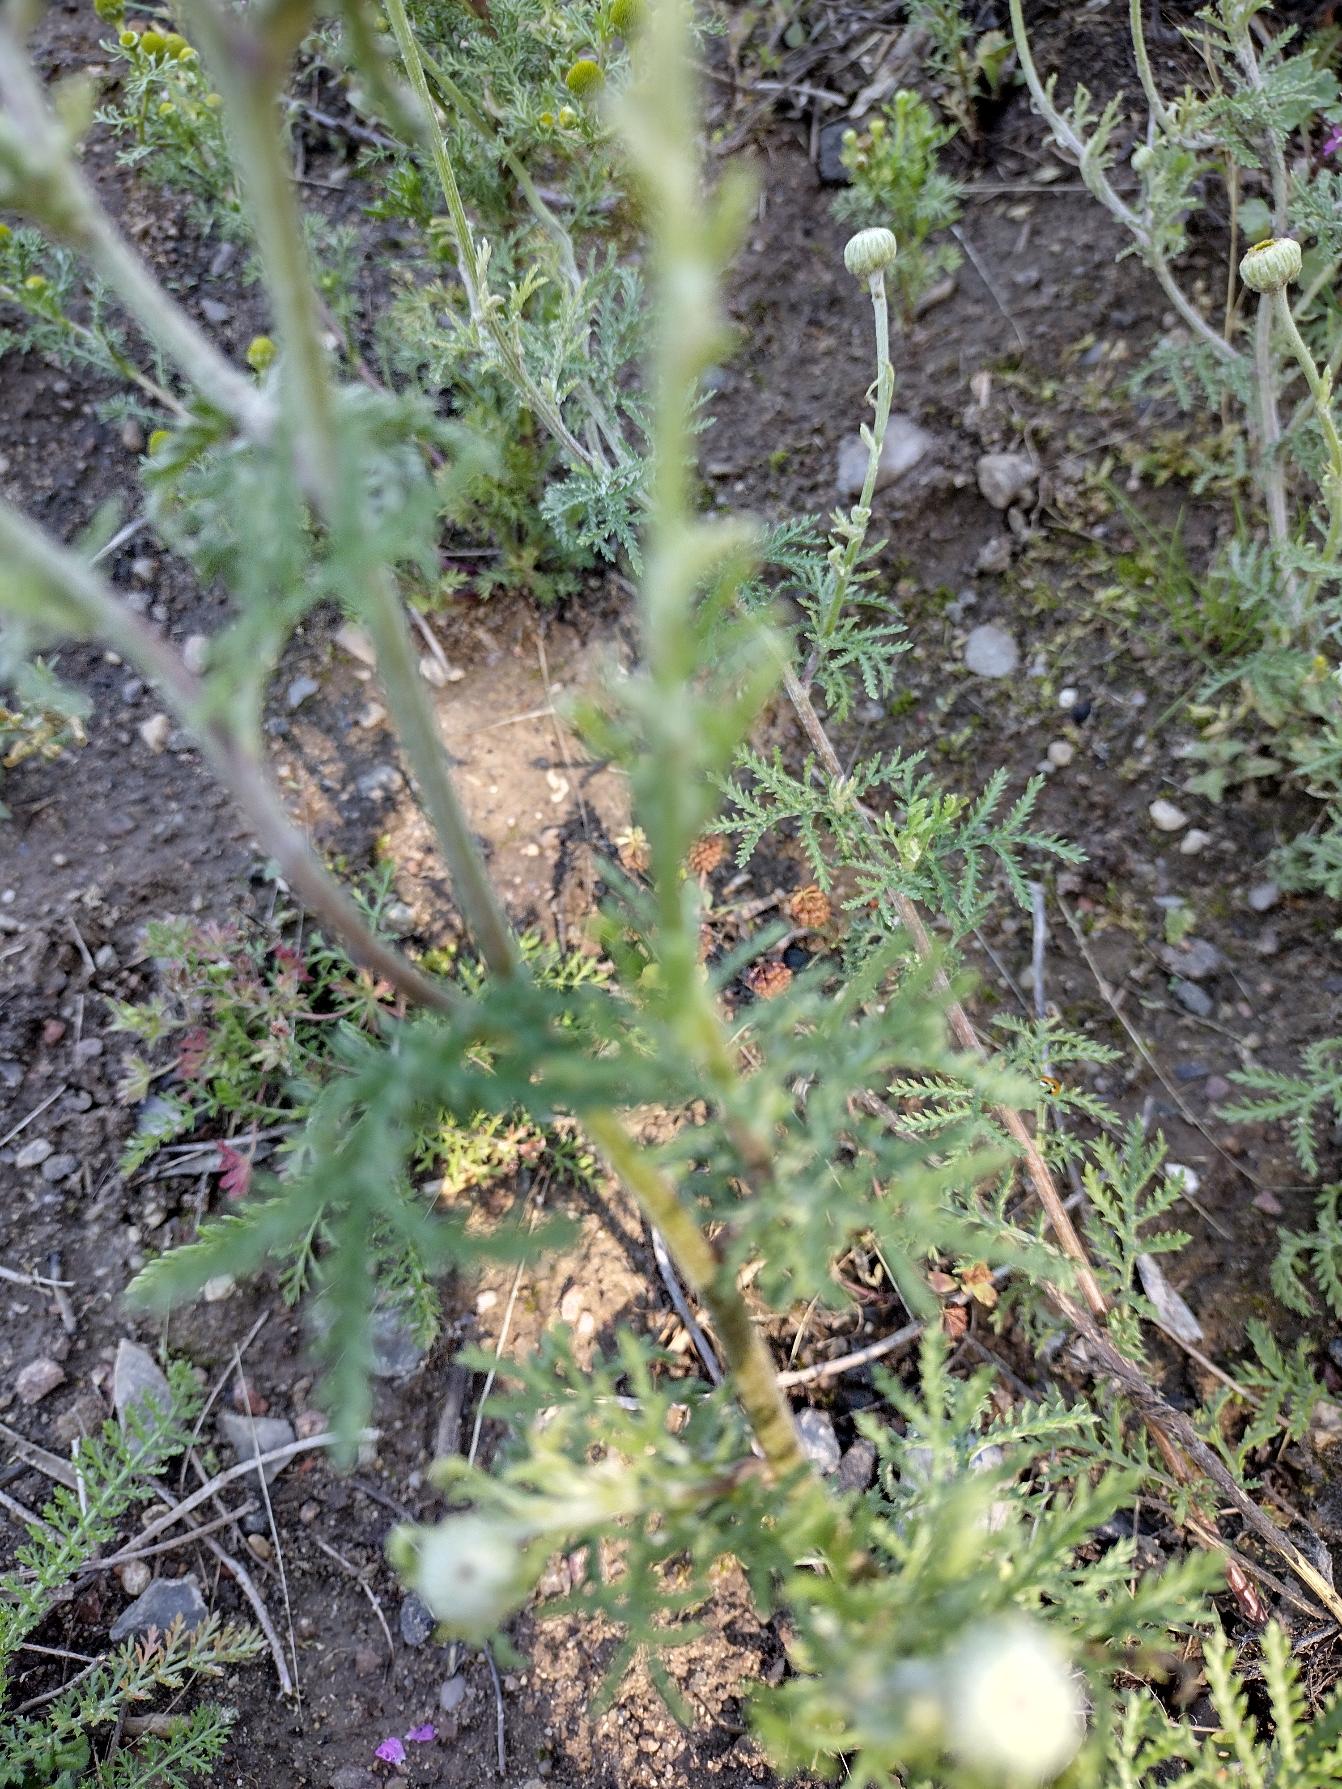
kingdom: Plantae
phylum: Tracheophyta
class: Magnoliopsida
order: Asterales
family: Asteraceae
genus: Cota
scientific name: Cota tinctoria
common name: Farve-gåseurt
